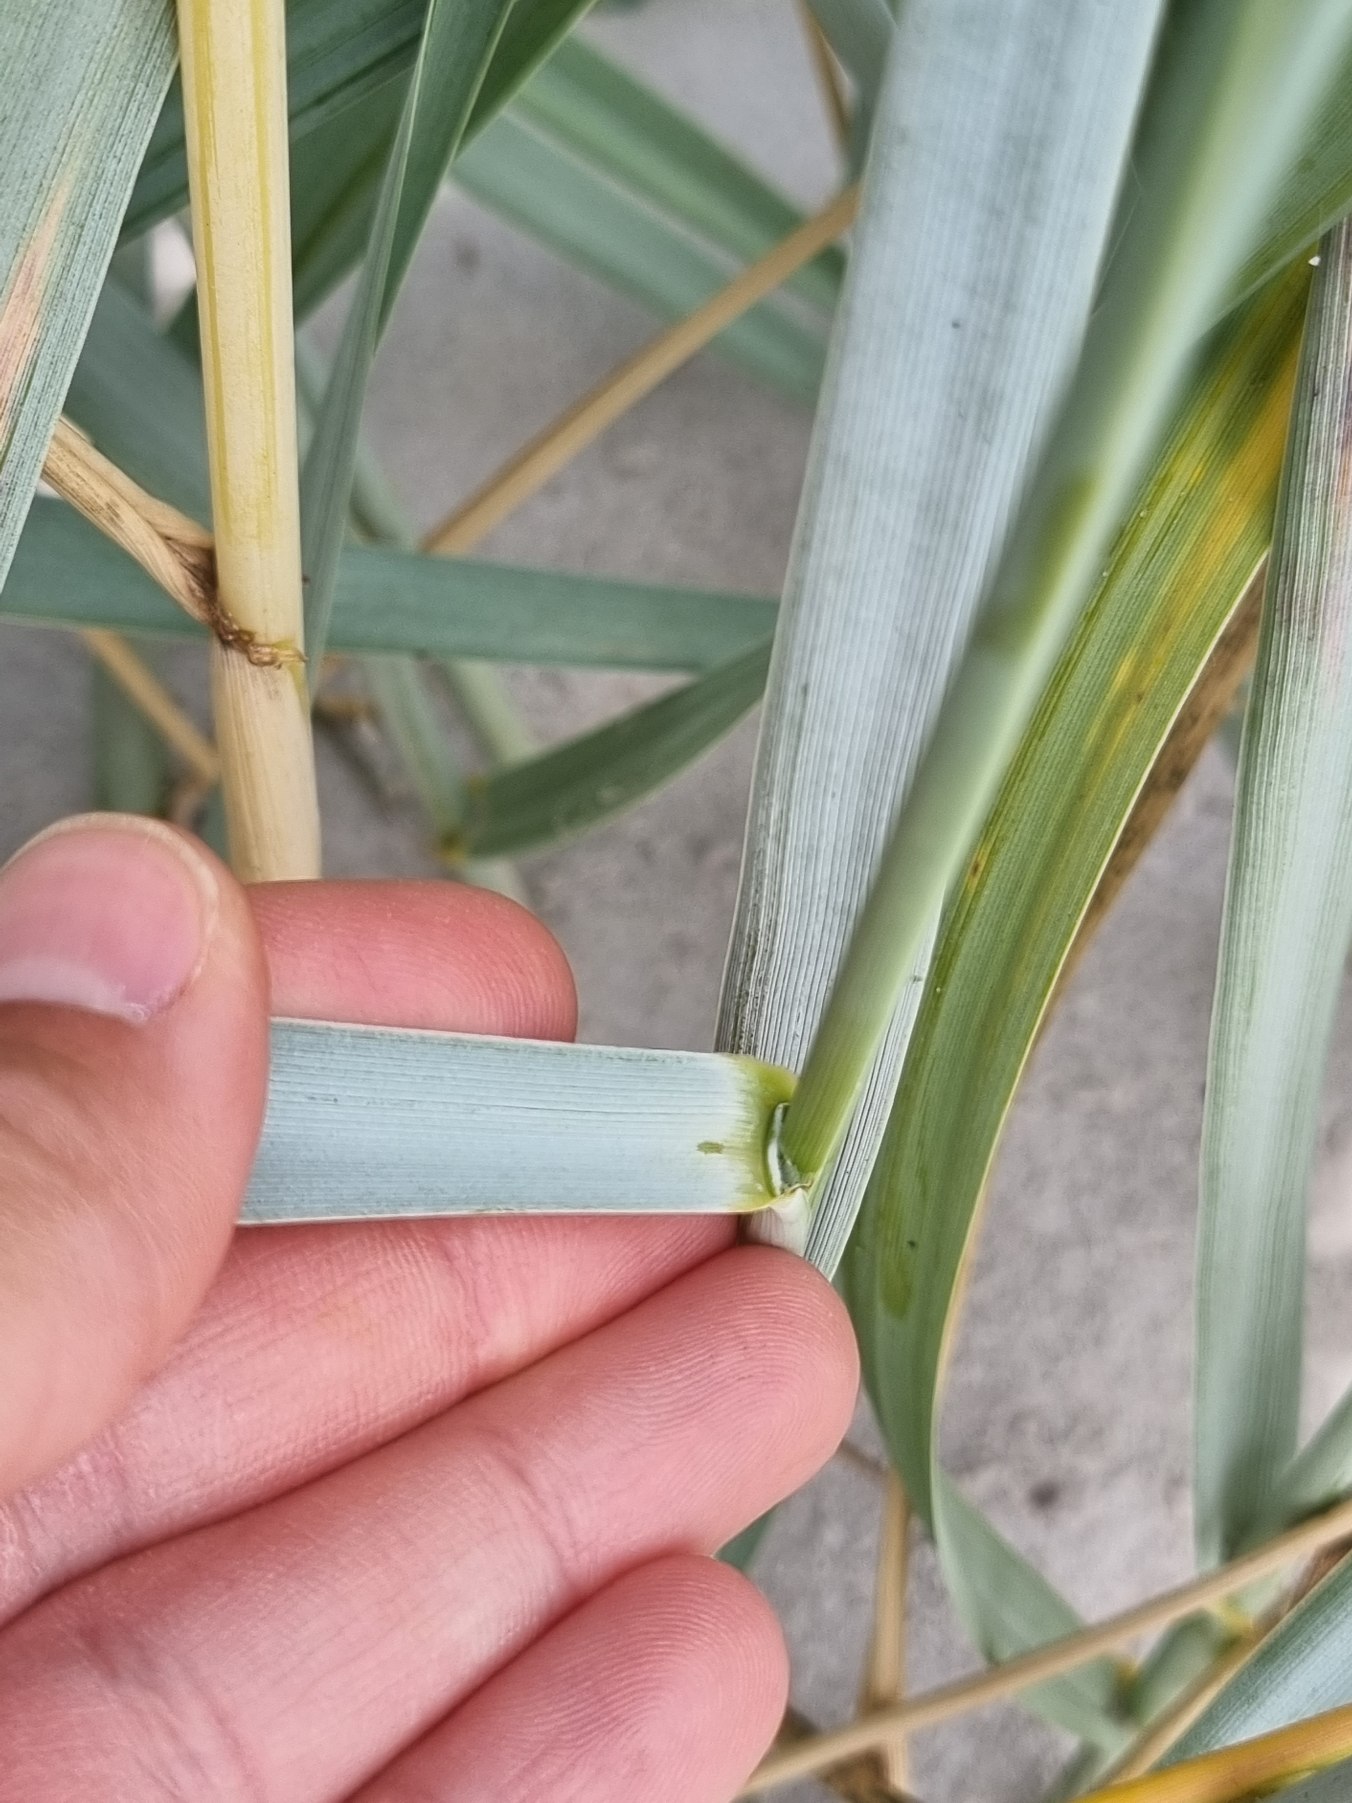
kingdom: Plantae
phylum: Tracheophyta
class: Liliopsida
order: Poales
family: Poaceae
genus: Leymus
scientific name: Leymus arenarius
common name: Marehalm
